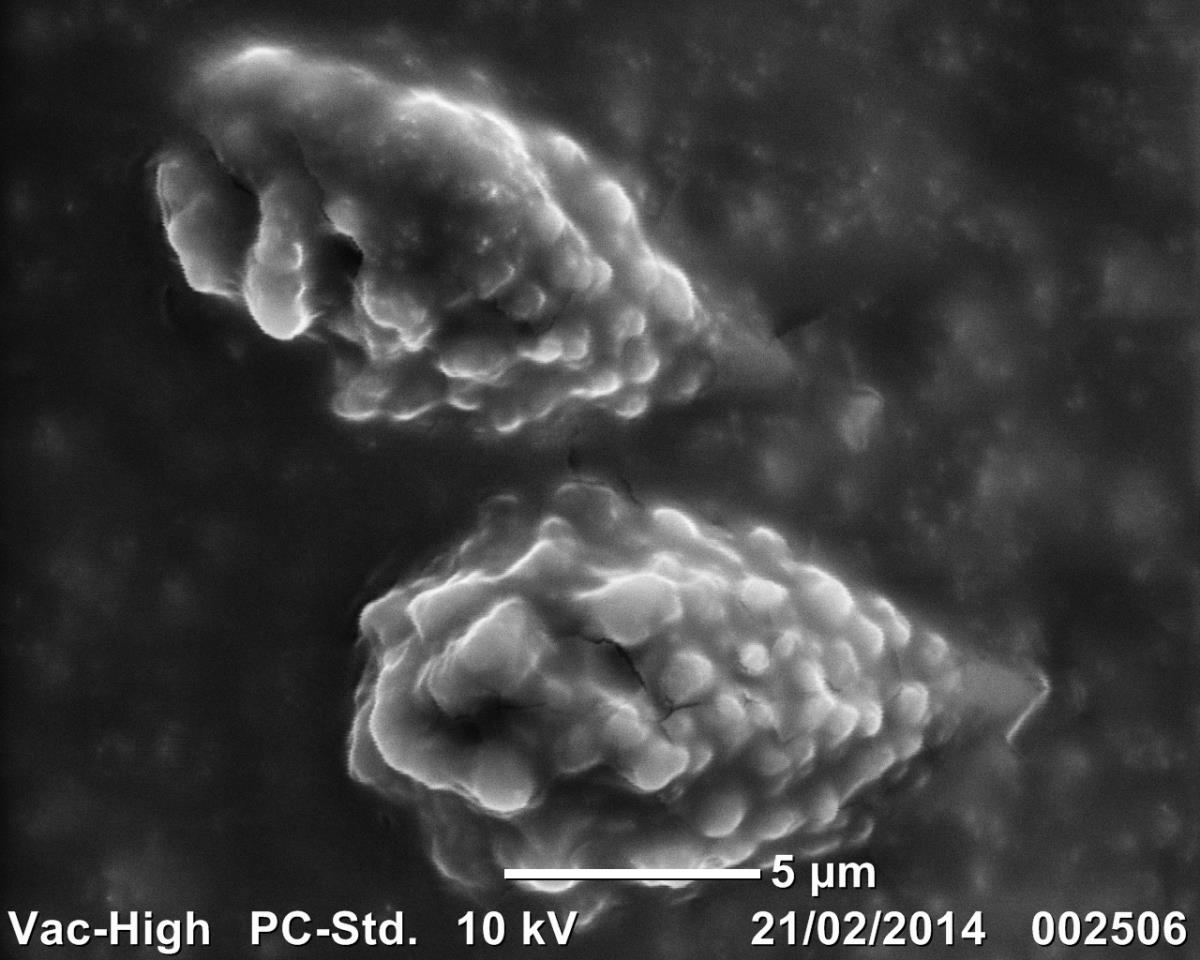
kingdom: Fungi
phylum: Basidiomycota
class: Ustilaginomycetes
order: Ustilaginales
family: Ustilaginaceae
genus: Ustilago
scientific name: Ustilago tritici
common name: Loose smut of wheat and barley
